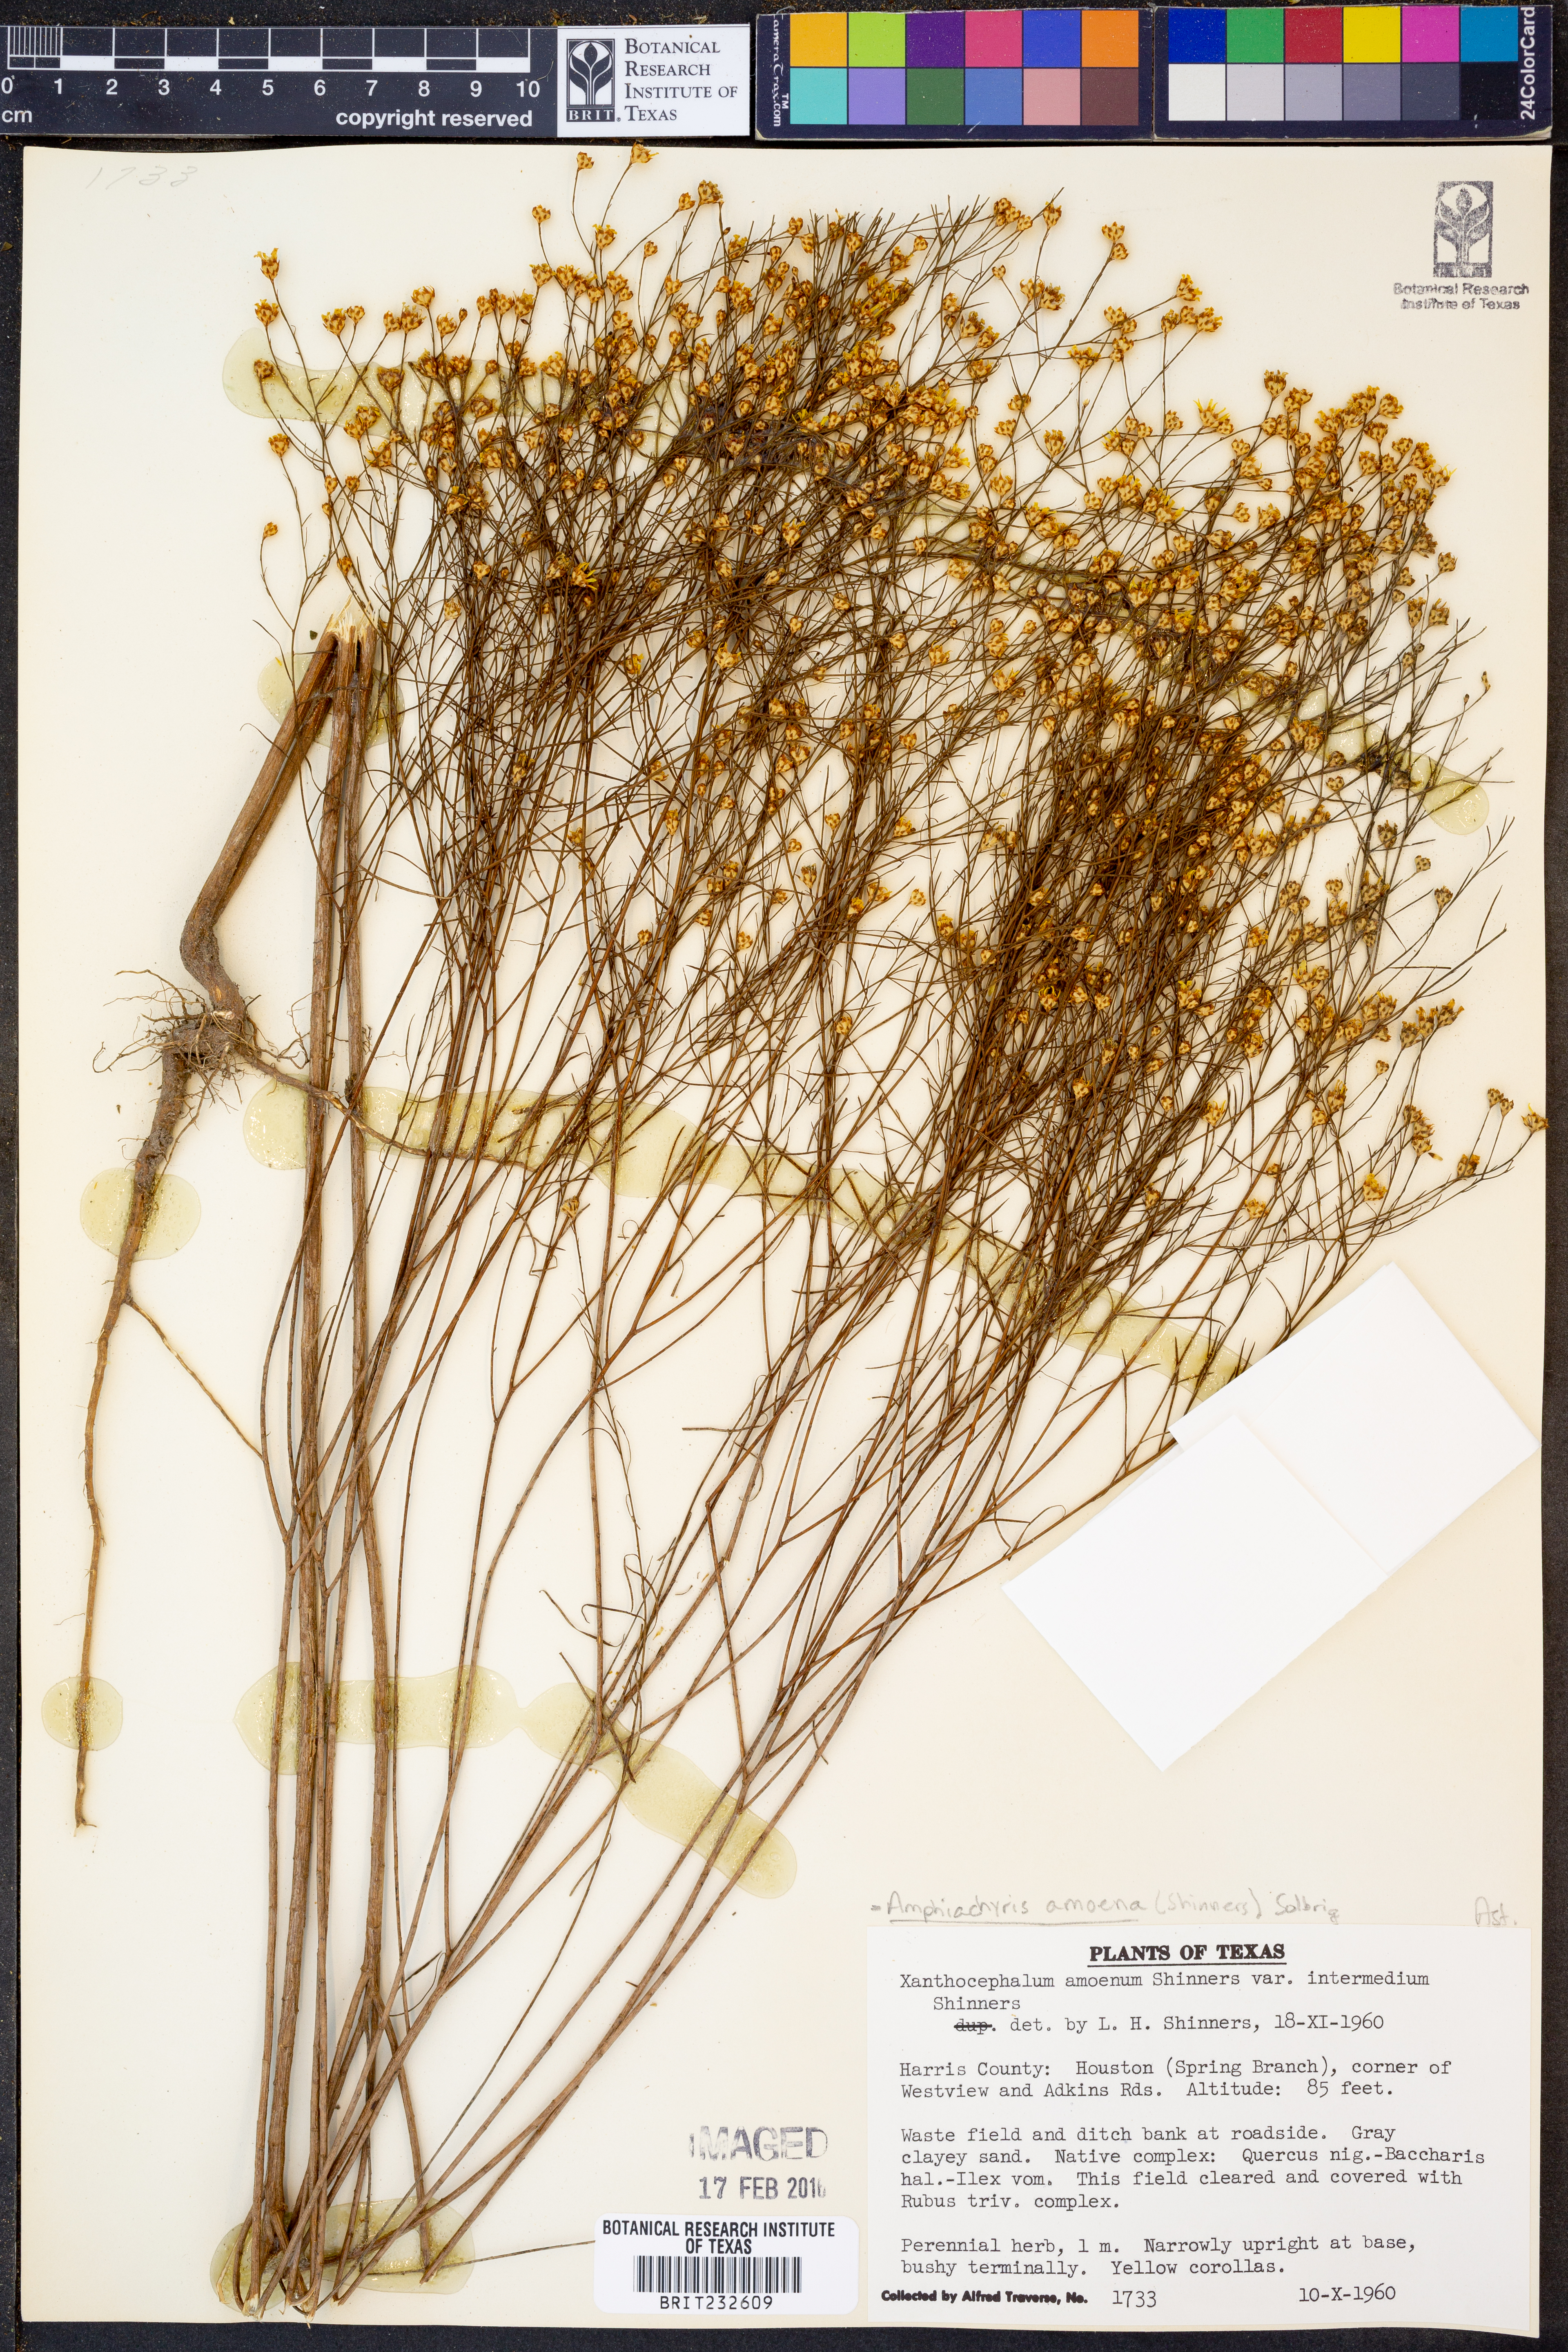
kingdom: Plantae
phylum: Tracheophyta
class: Magnoliopsida
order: Asterales
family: Asteraceae
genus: Amphiachyris
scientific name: Amphiachyris amoenum
